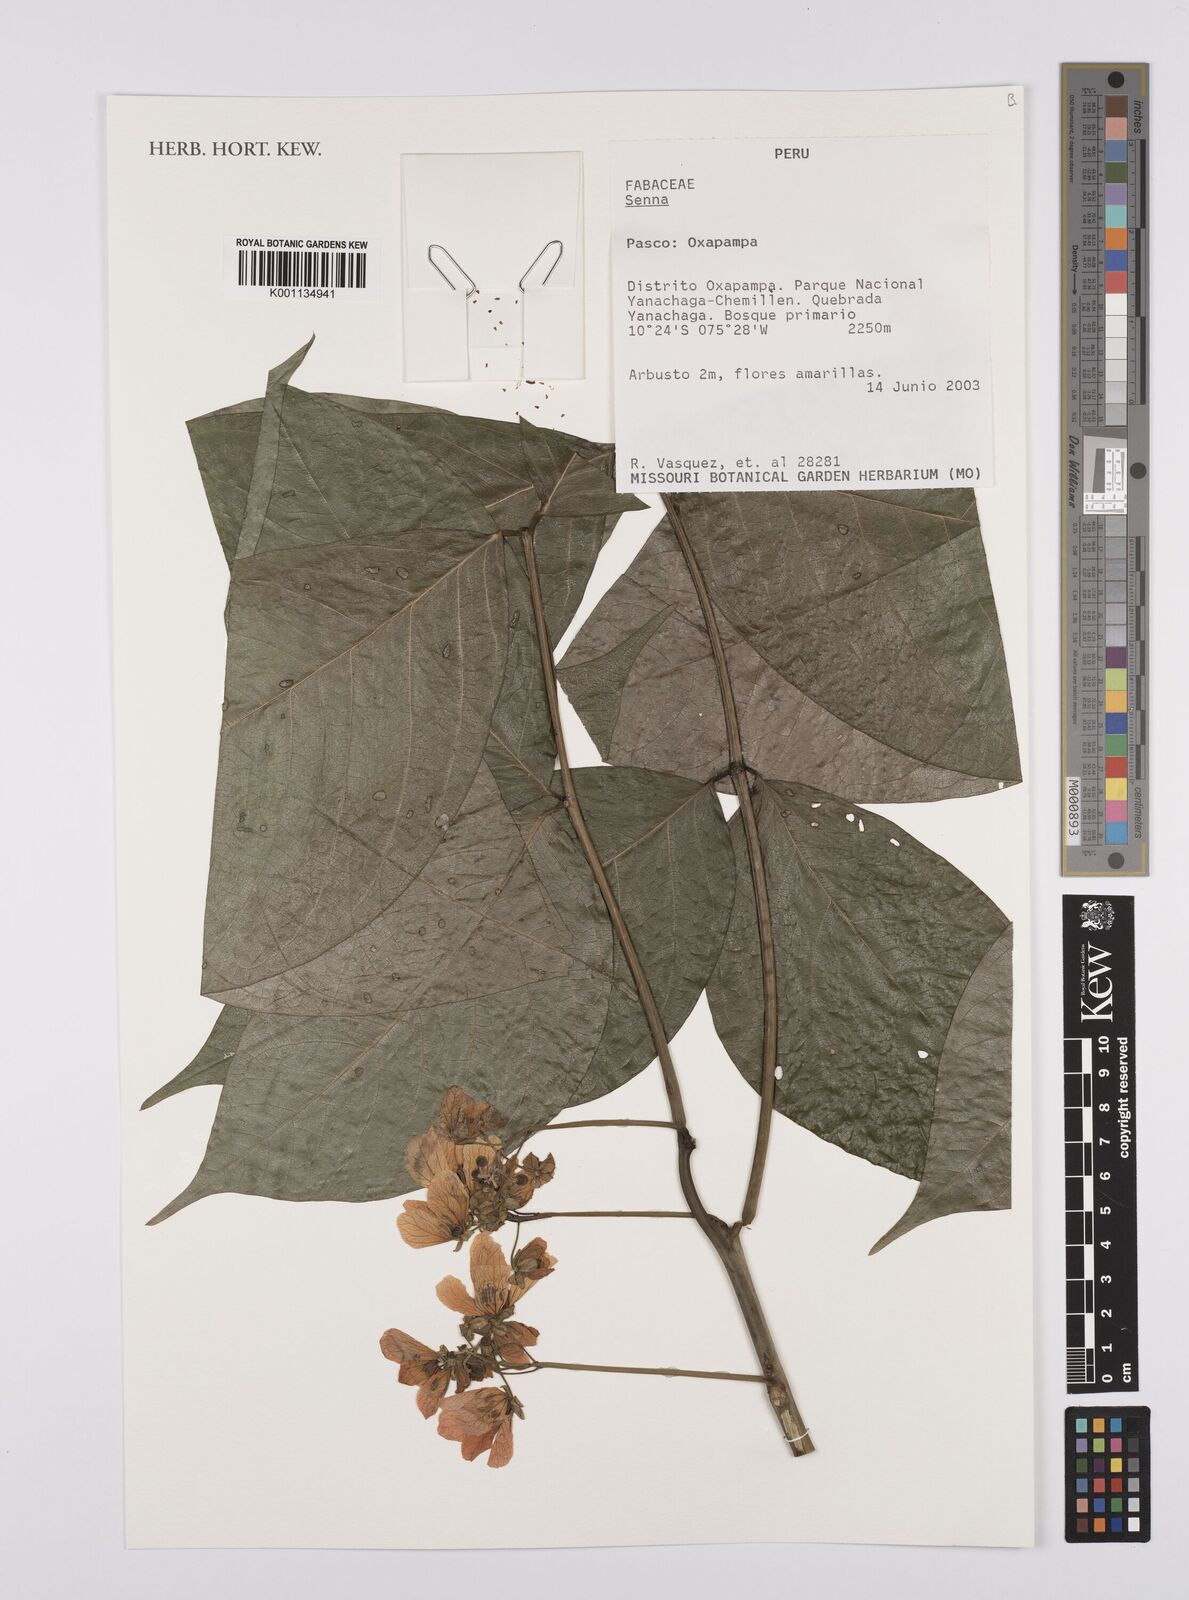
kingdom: Plantae
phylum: Tracheophyta
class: Magnoliopsida
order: Fabales
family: Fabaceae
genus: Senna
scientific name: Senna
